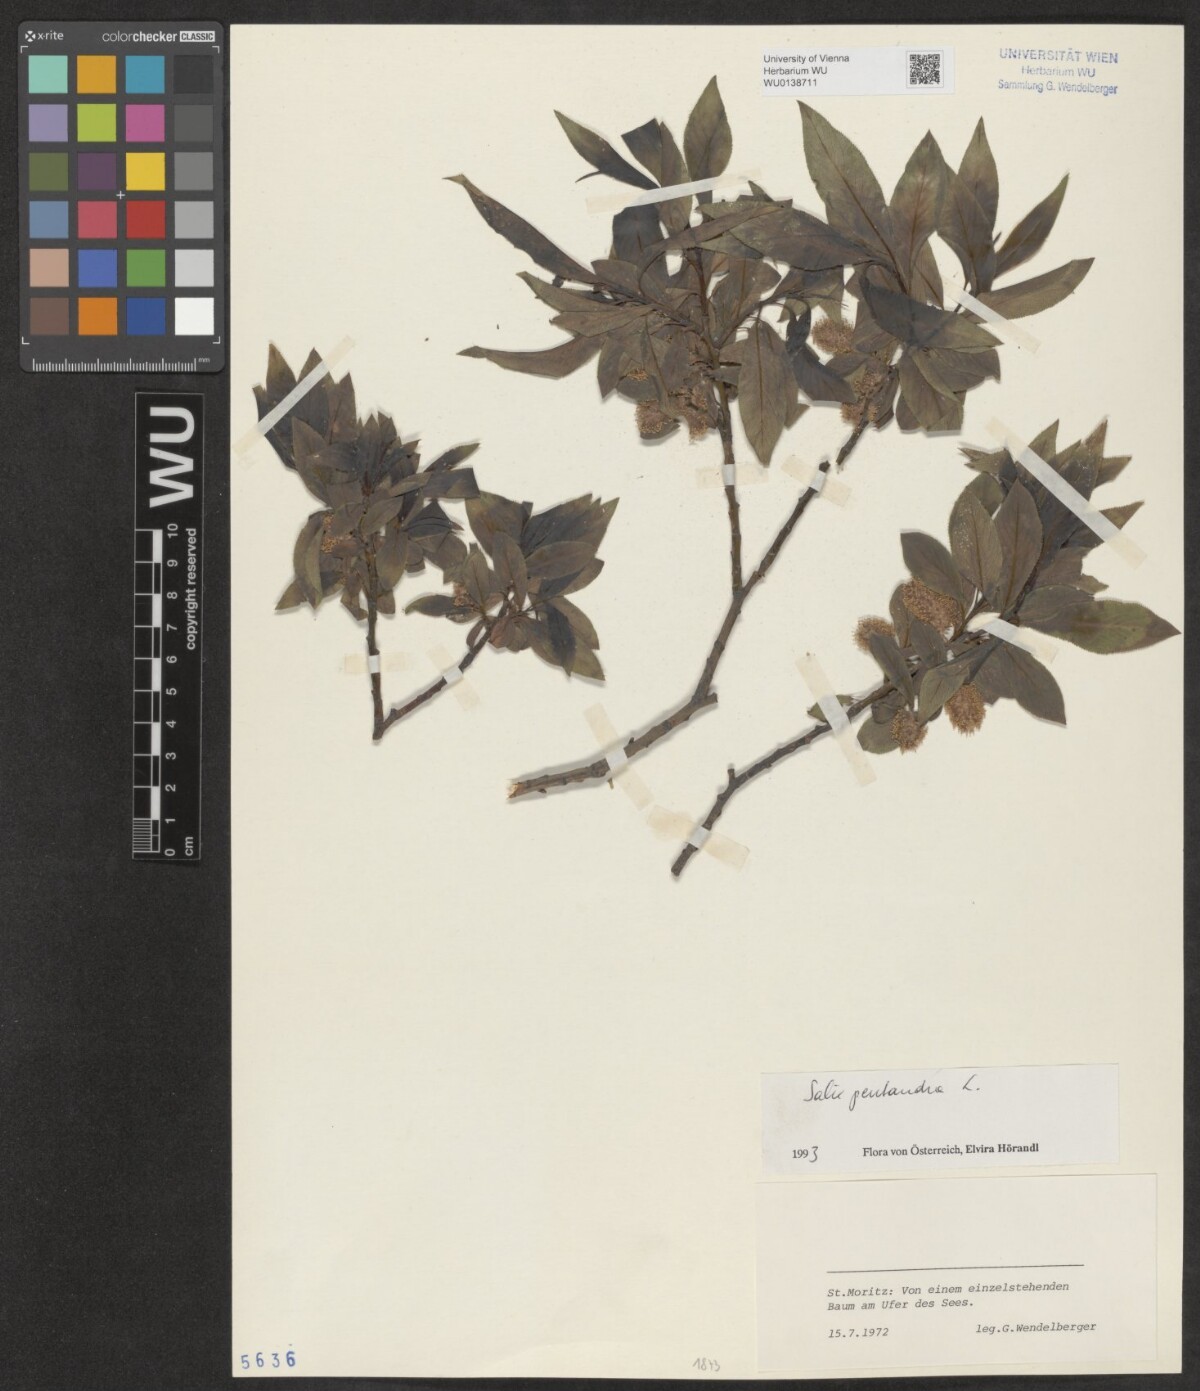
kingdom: Plantae
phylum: Tracheophyta
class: Magnoliopsida
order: Malpighiales
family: Salicaceae
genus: Salix
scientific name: Salix pentandra
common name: Bay willow
